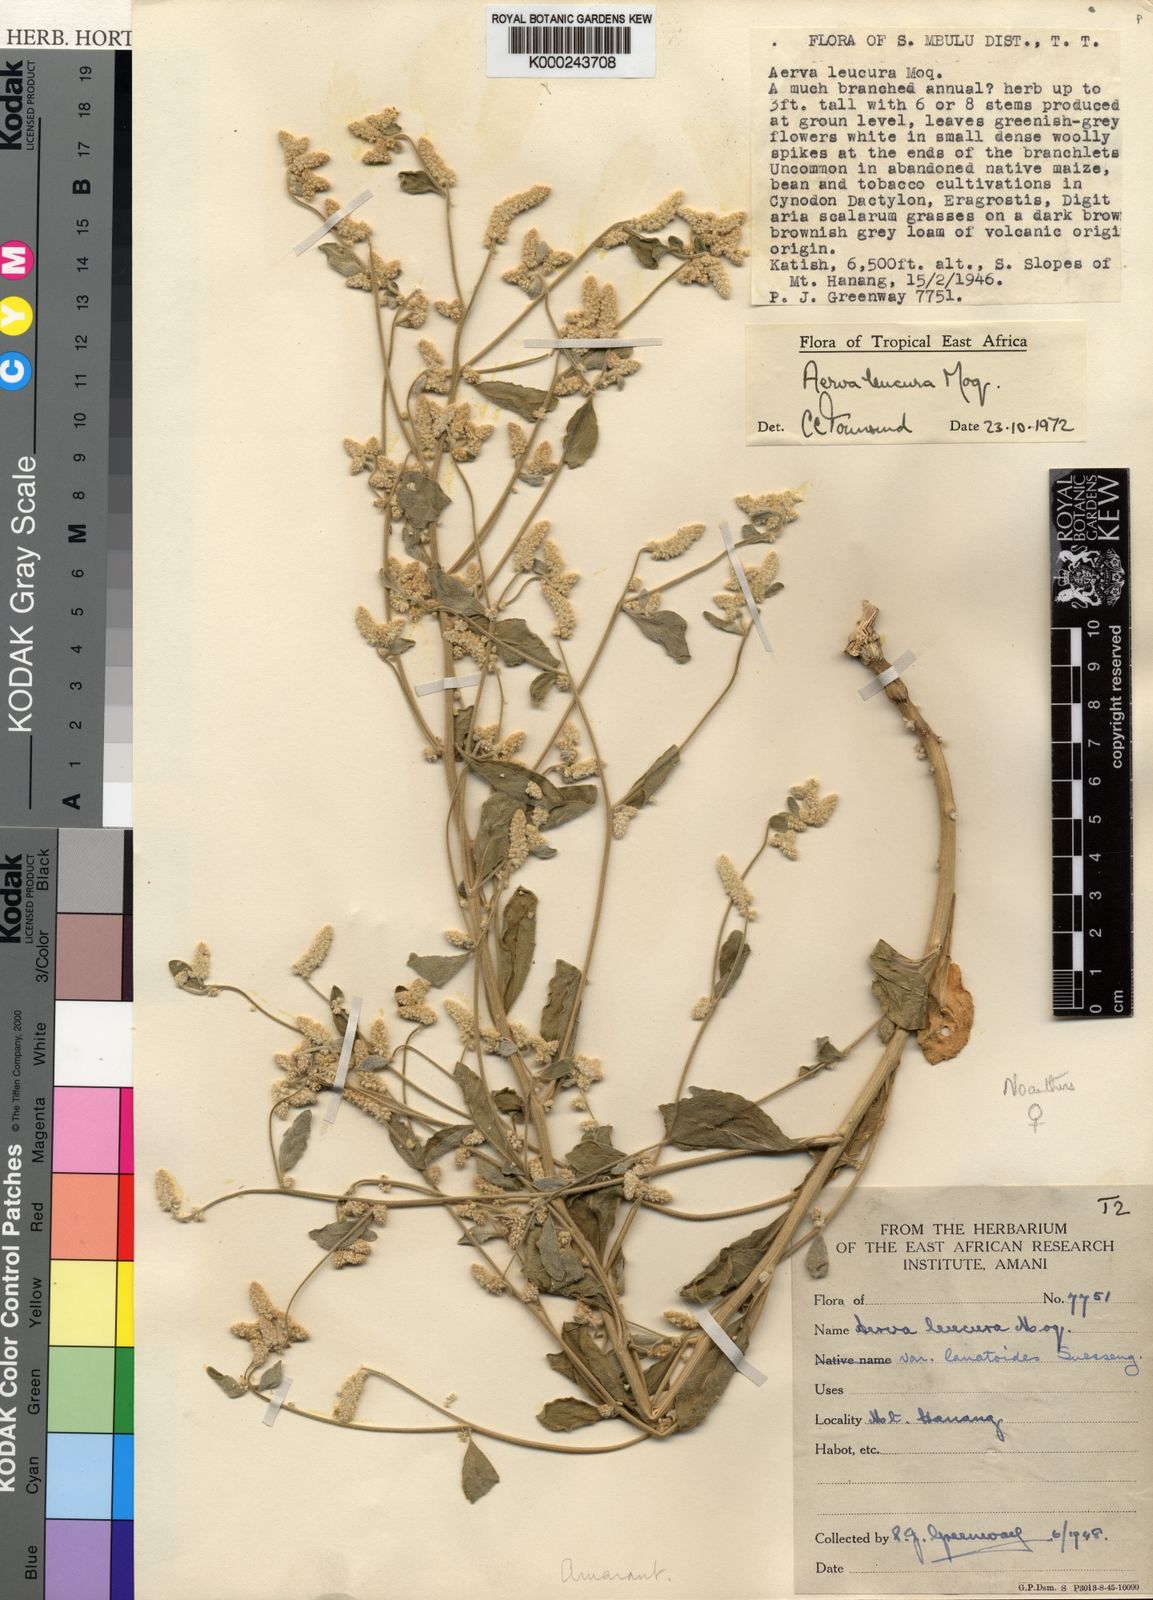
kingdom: Plantae
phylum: Tracheophyta
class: Magnoliopsida
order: Caryophyllales
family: Amaranthaceae
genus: Ouret
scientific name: Ouret leucura
